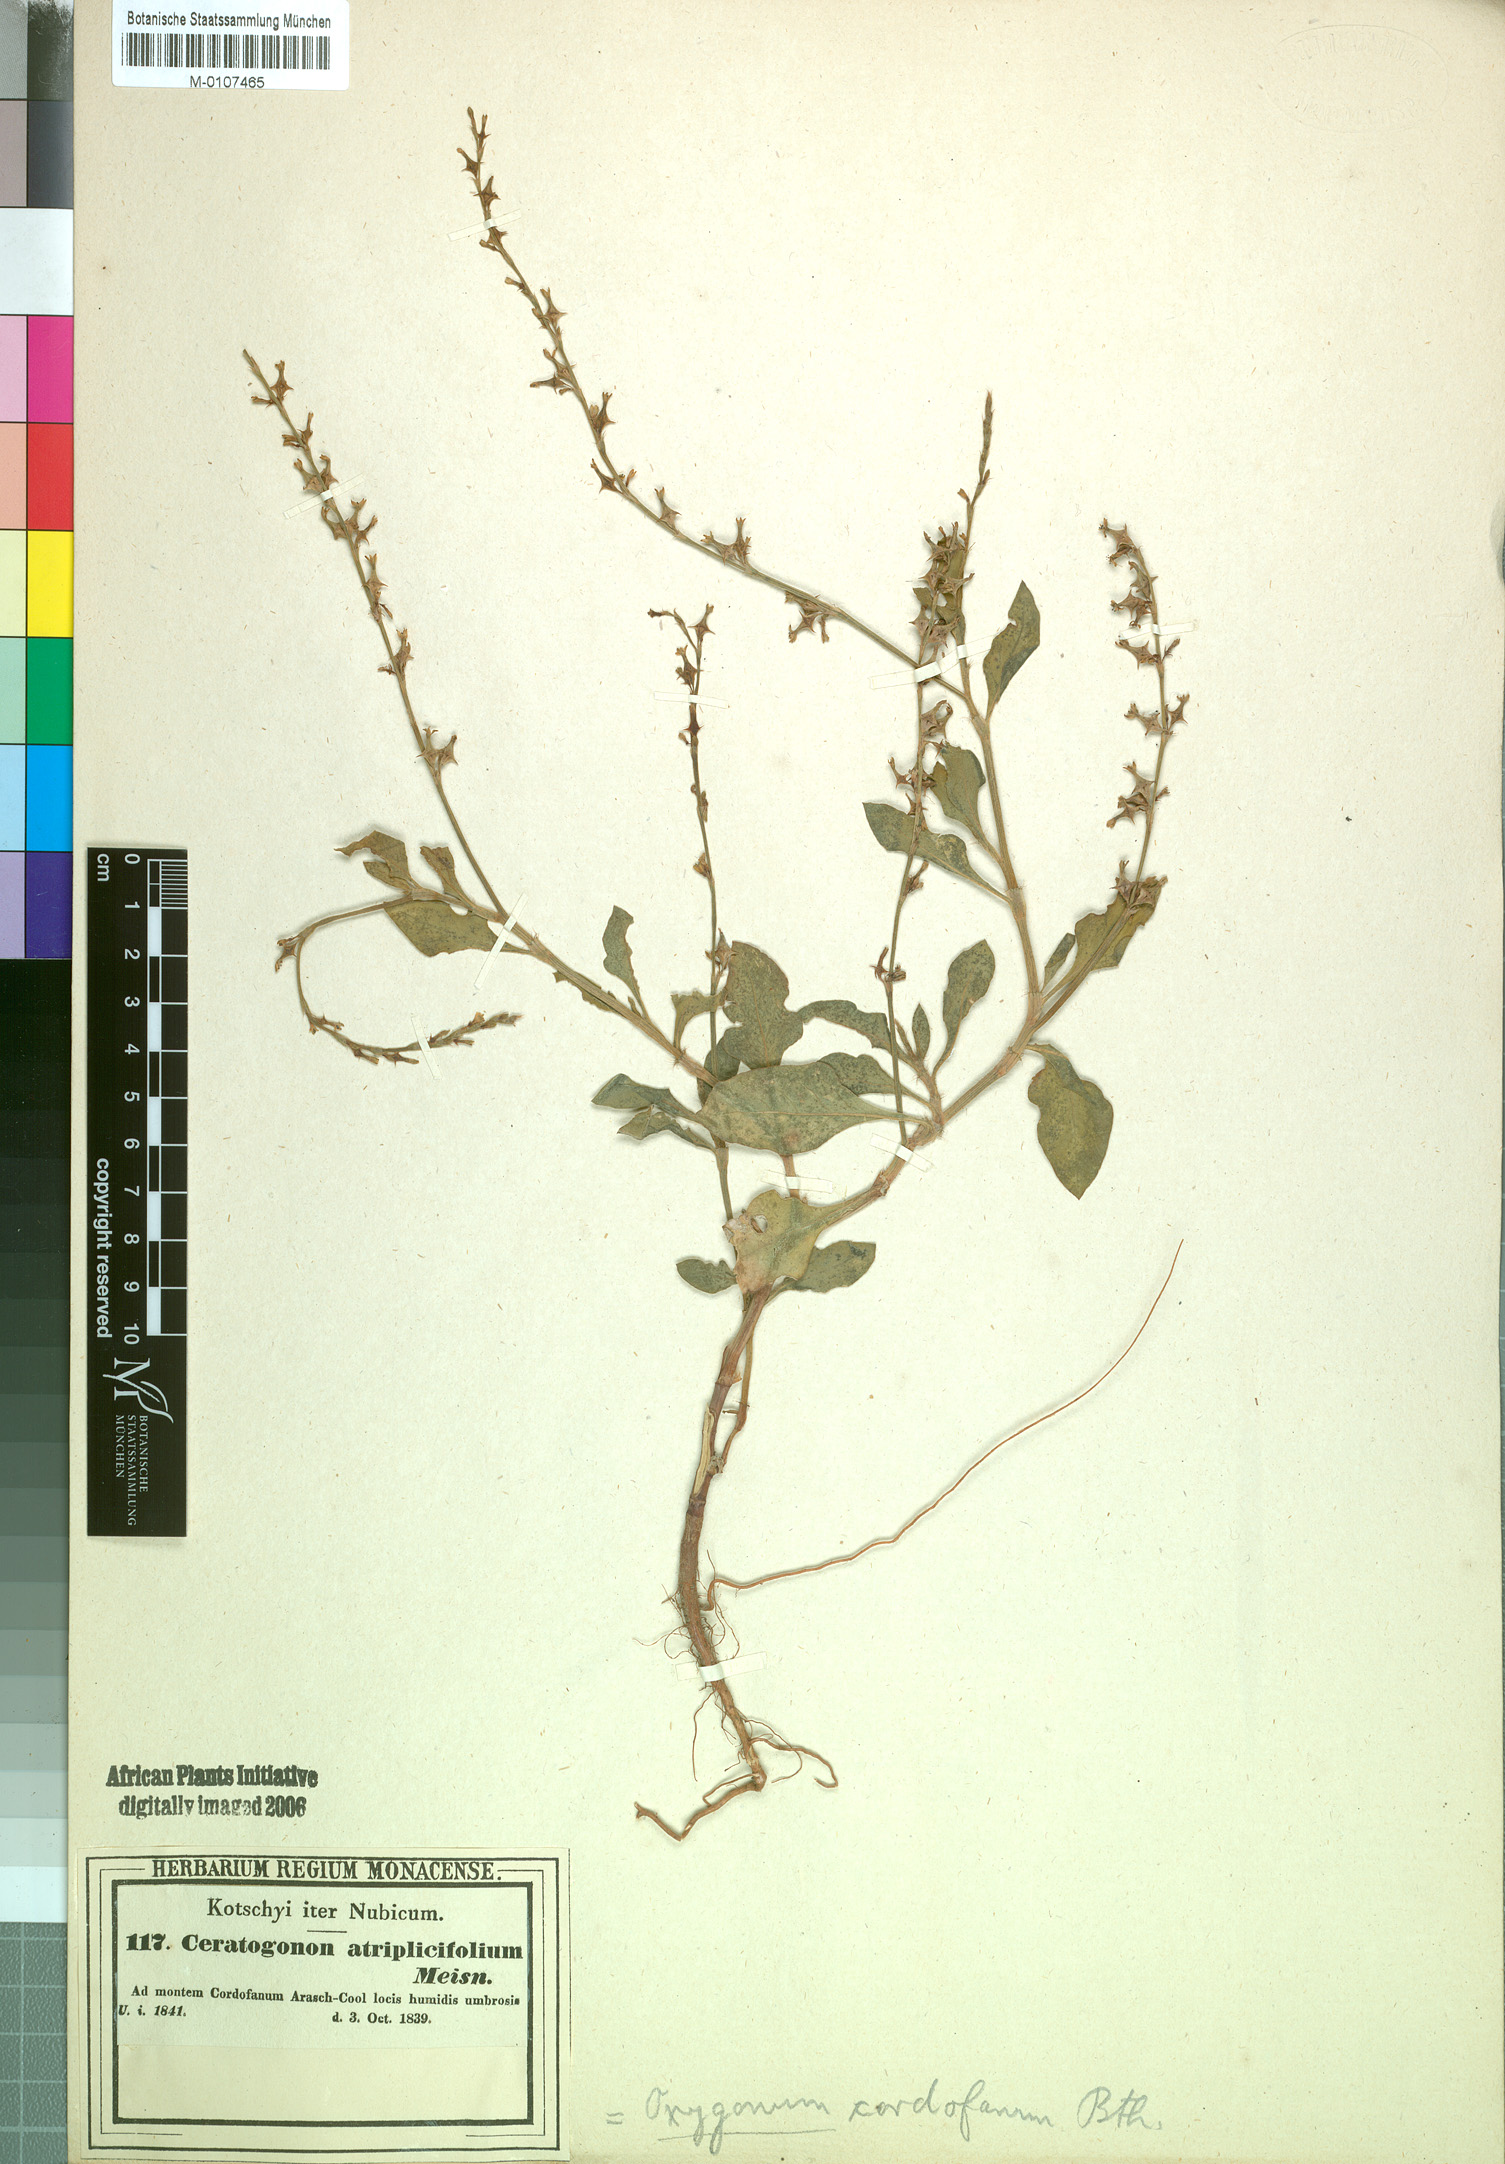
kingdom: Plantae
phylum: Tracheophyta
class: Magnoliopsida
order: Caryophyllales
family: Polygonaceae
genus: Oxygonum
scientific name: Oxygonum sinuatum
